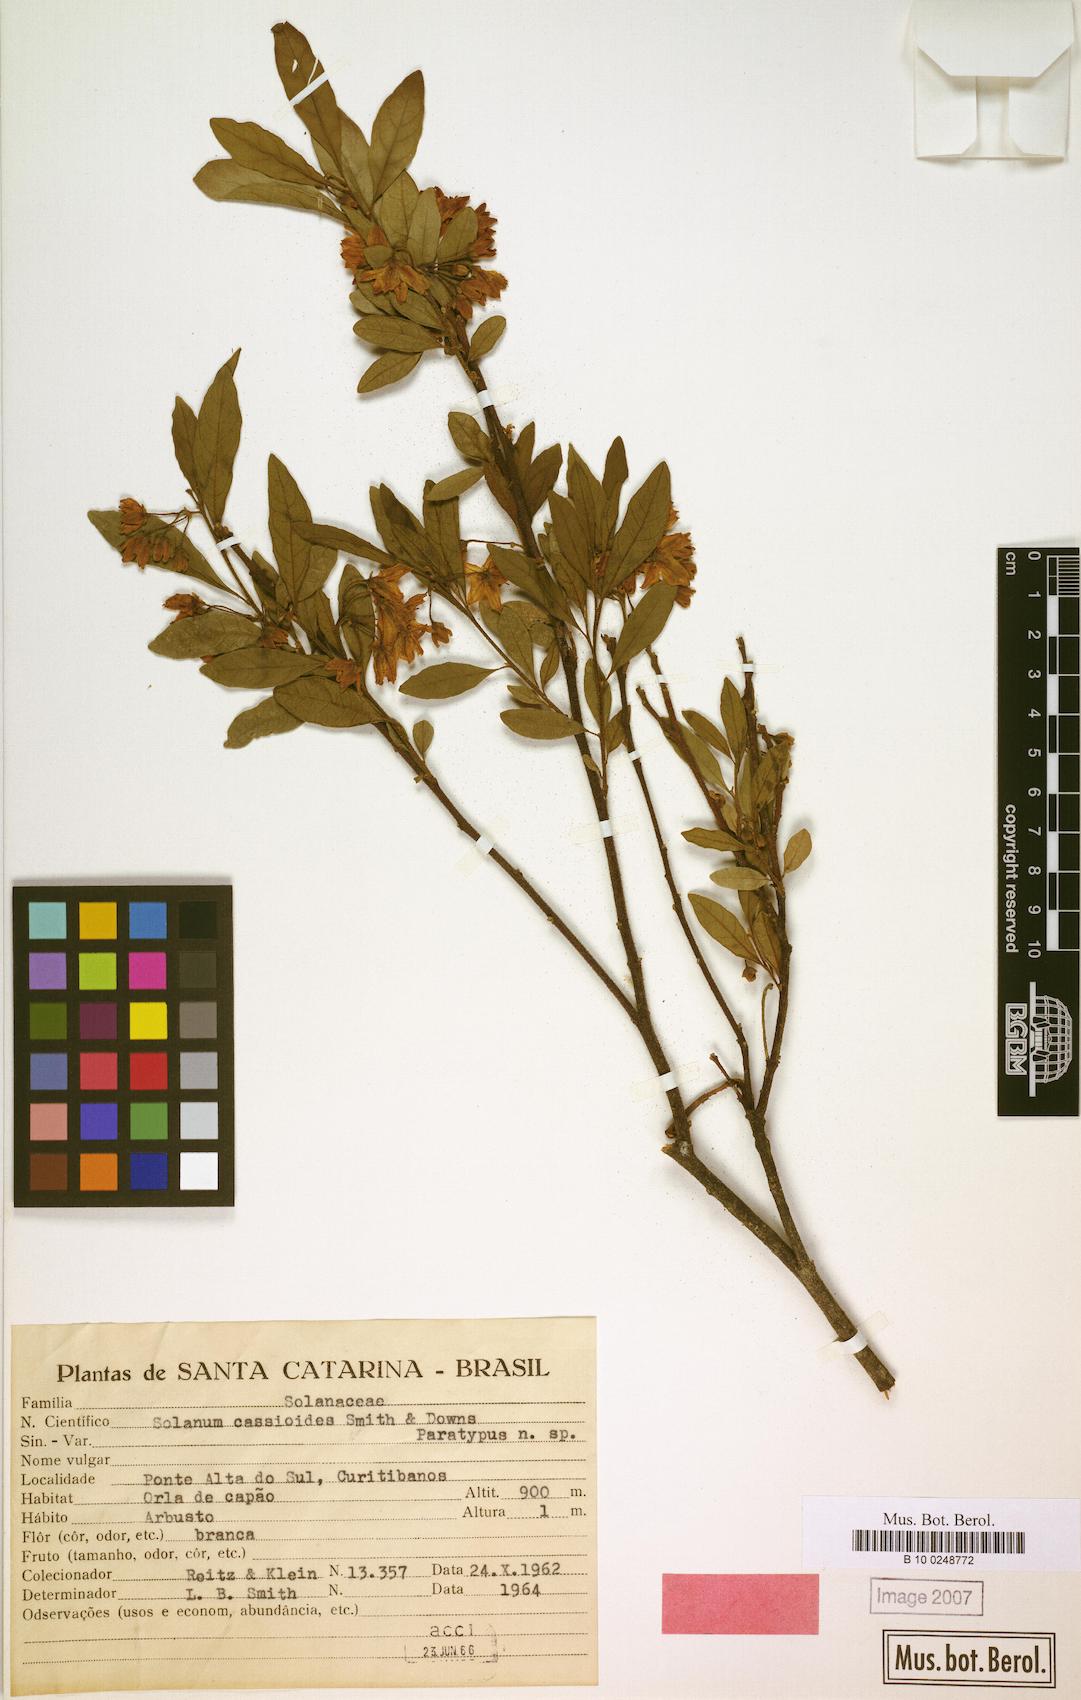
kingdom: Plantae
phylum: Tracheophyta
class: Magnoliopsida
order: Solanales
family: Solanaceae
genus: Solanum
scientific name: Solanum cassioides
